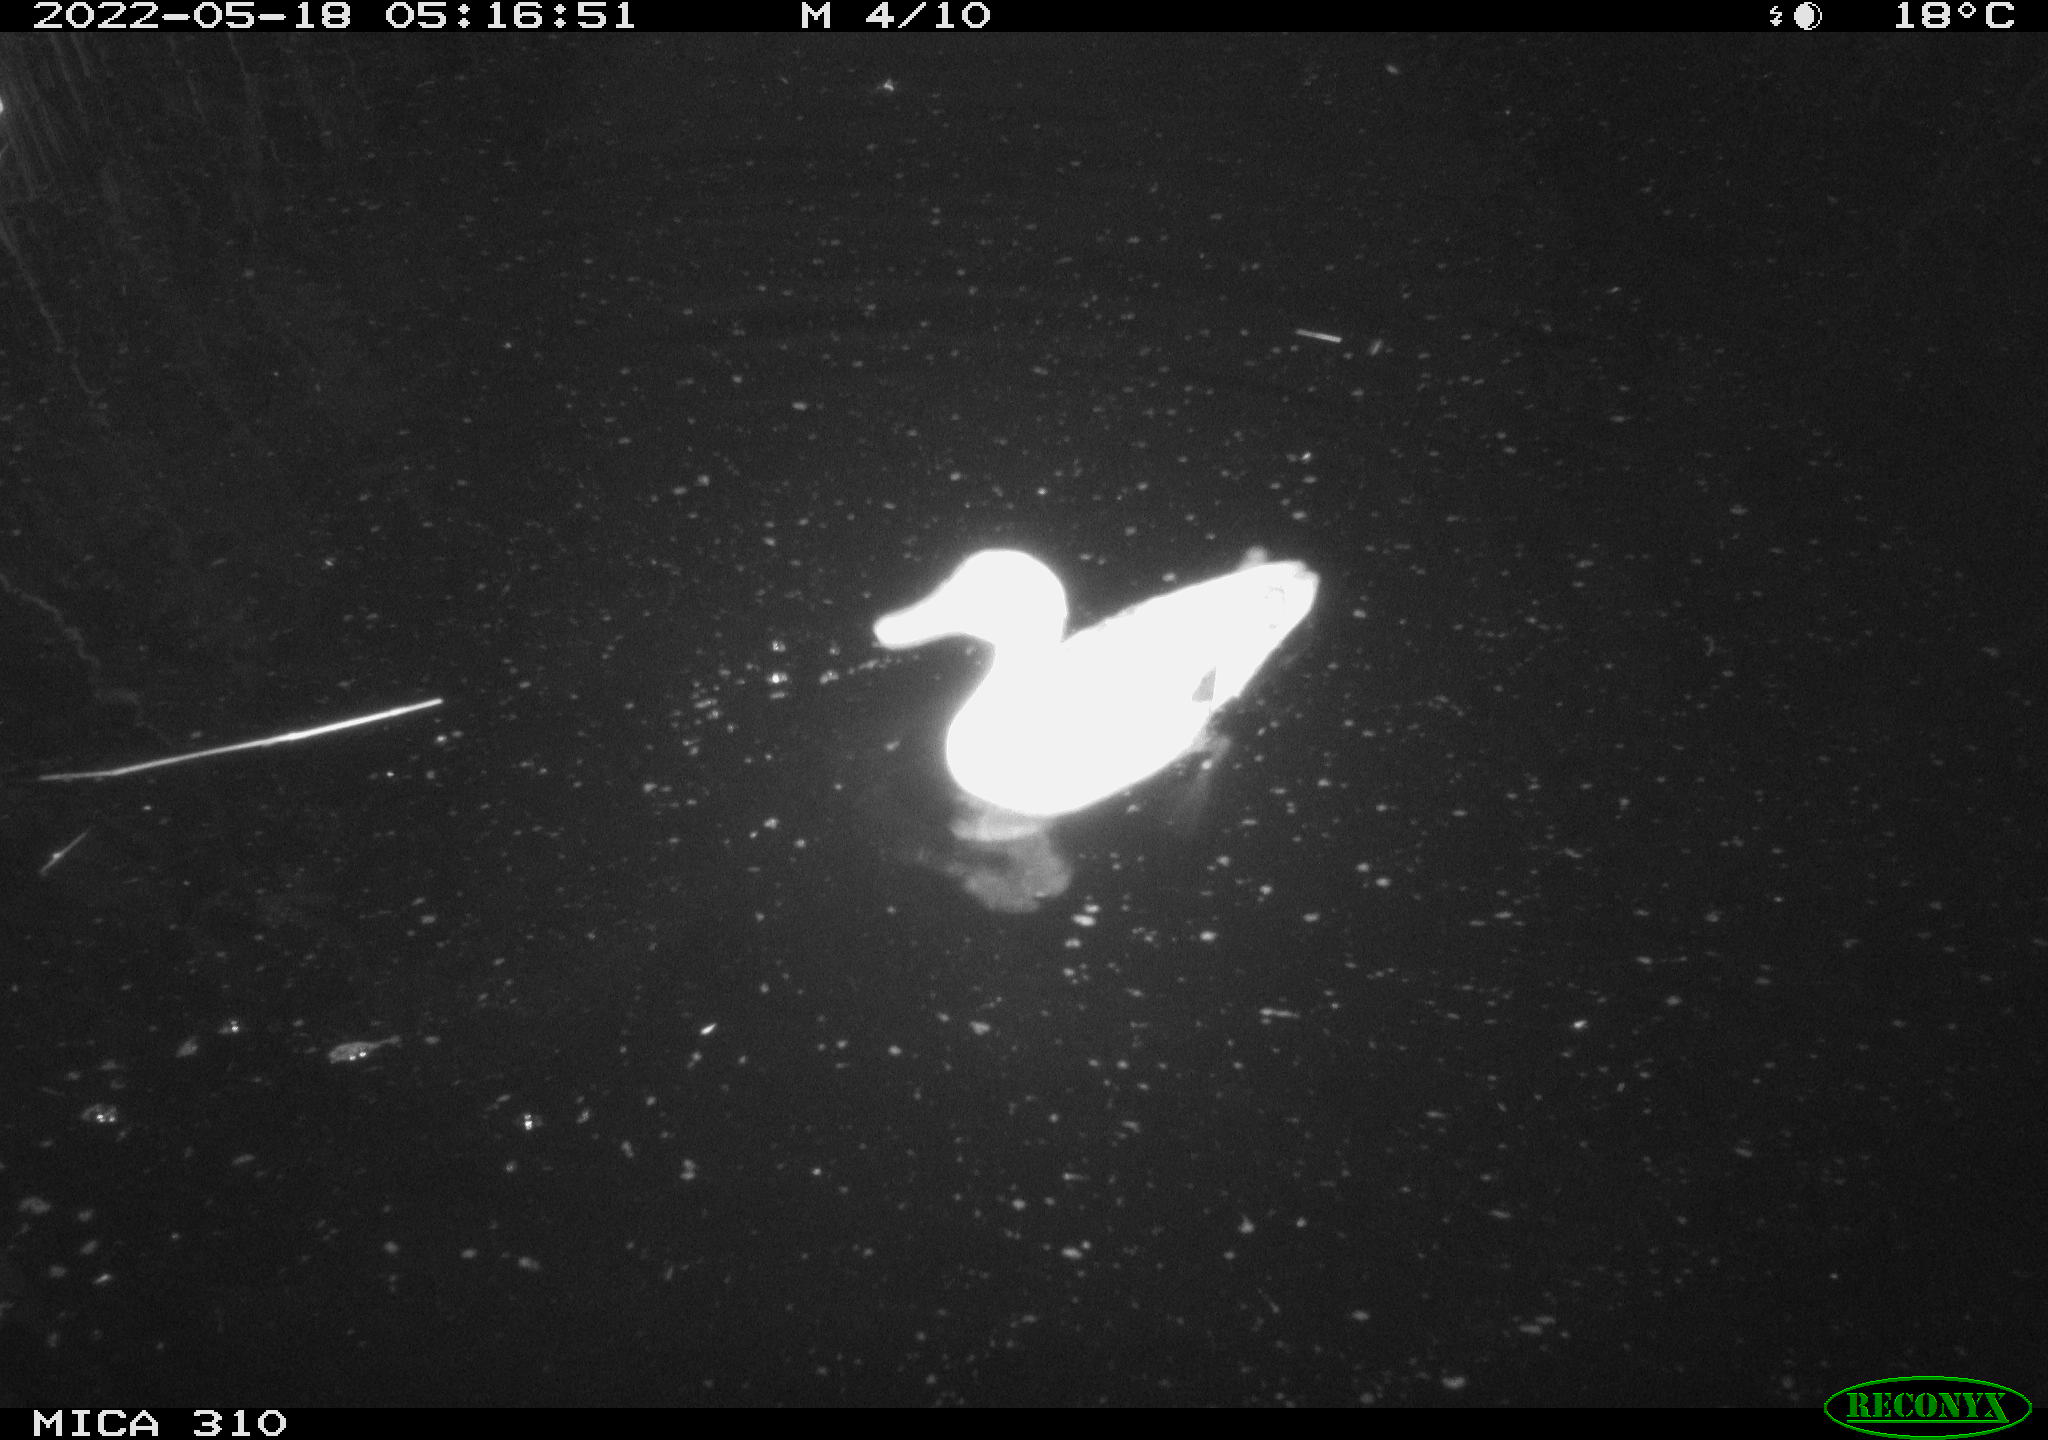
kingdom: Animalia
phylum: Chordata
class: Aves
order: Anseriformes
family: Anatidae
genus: Anas
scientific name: Anas platyrhynchos
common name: Mallard
